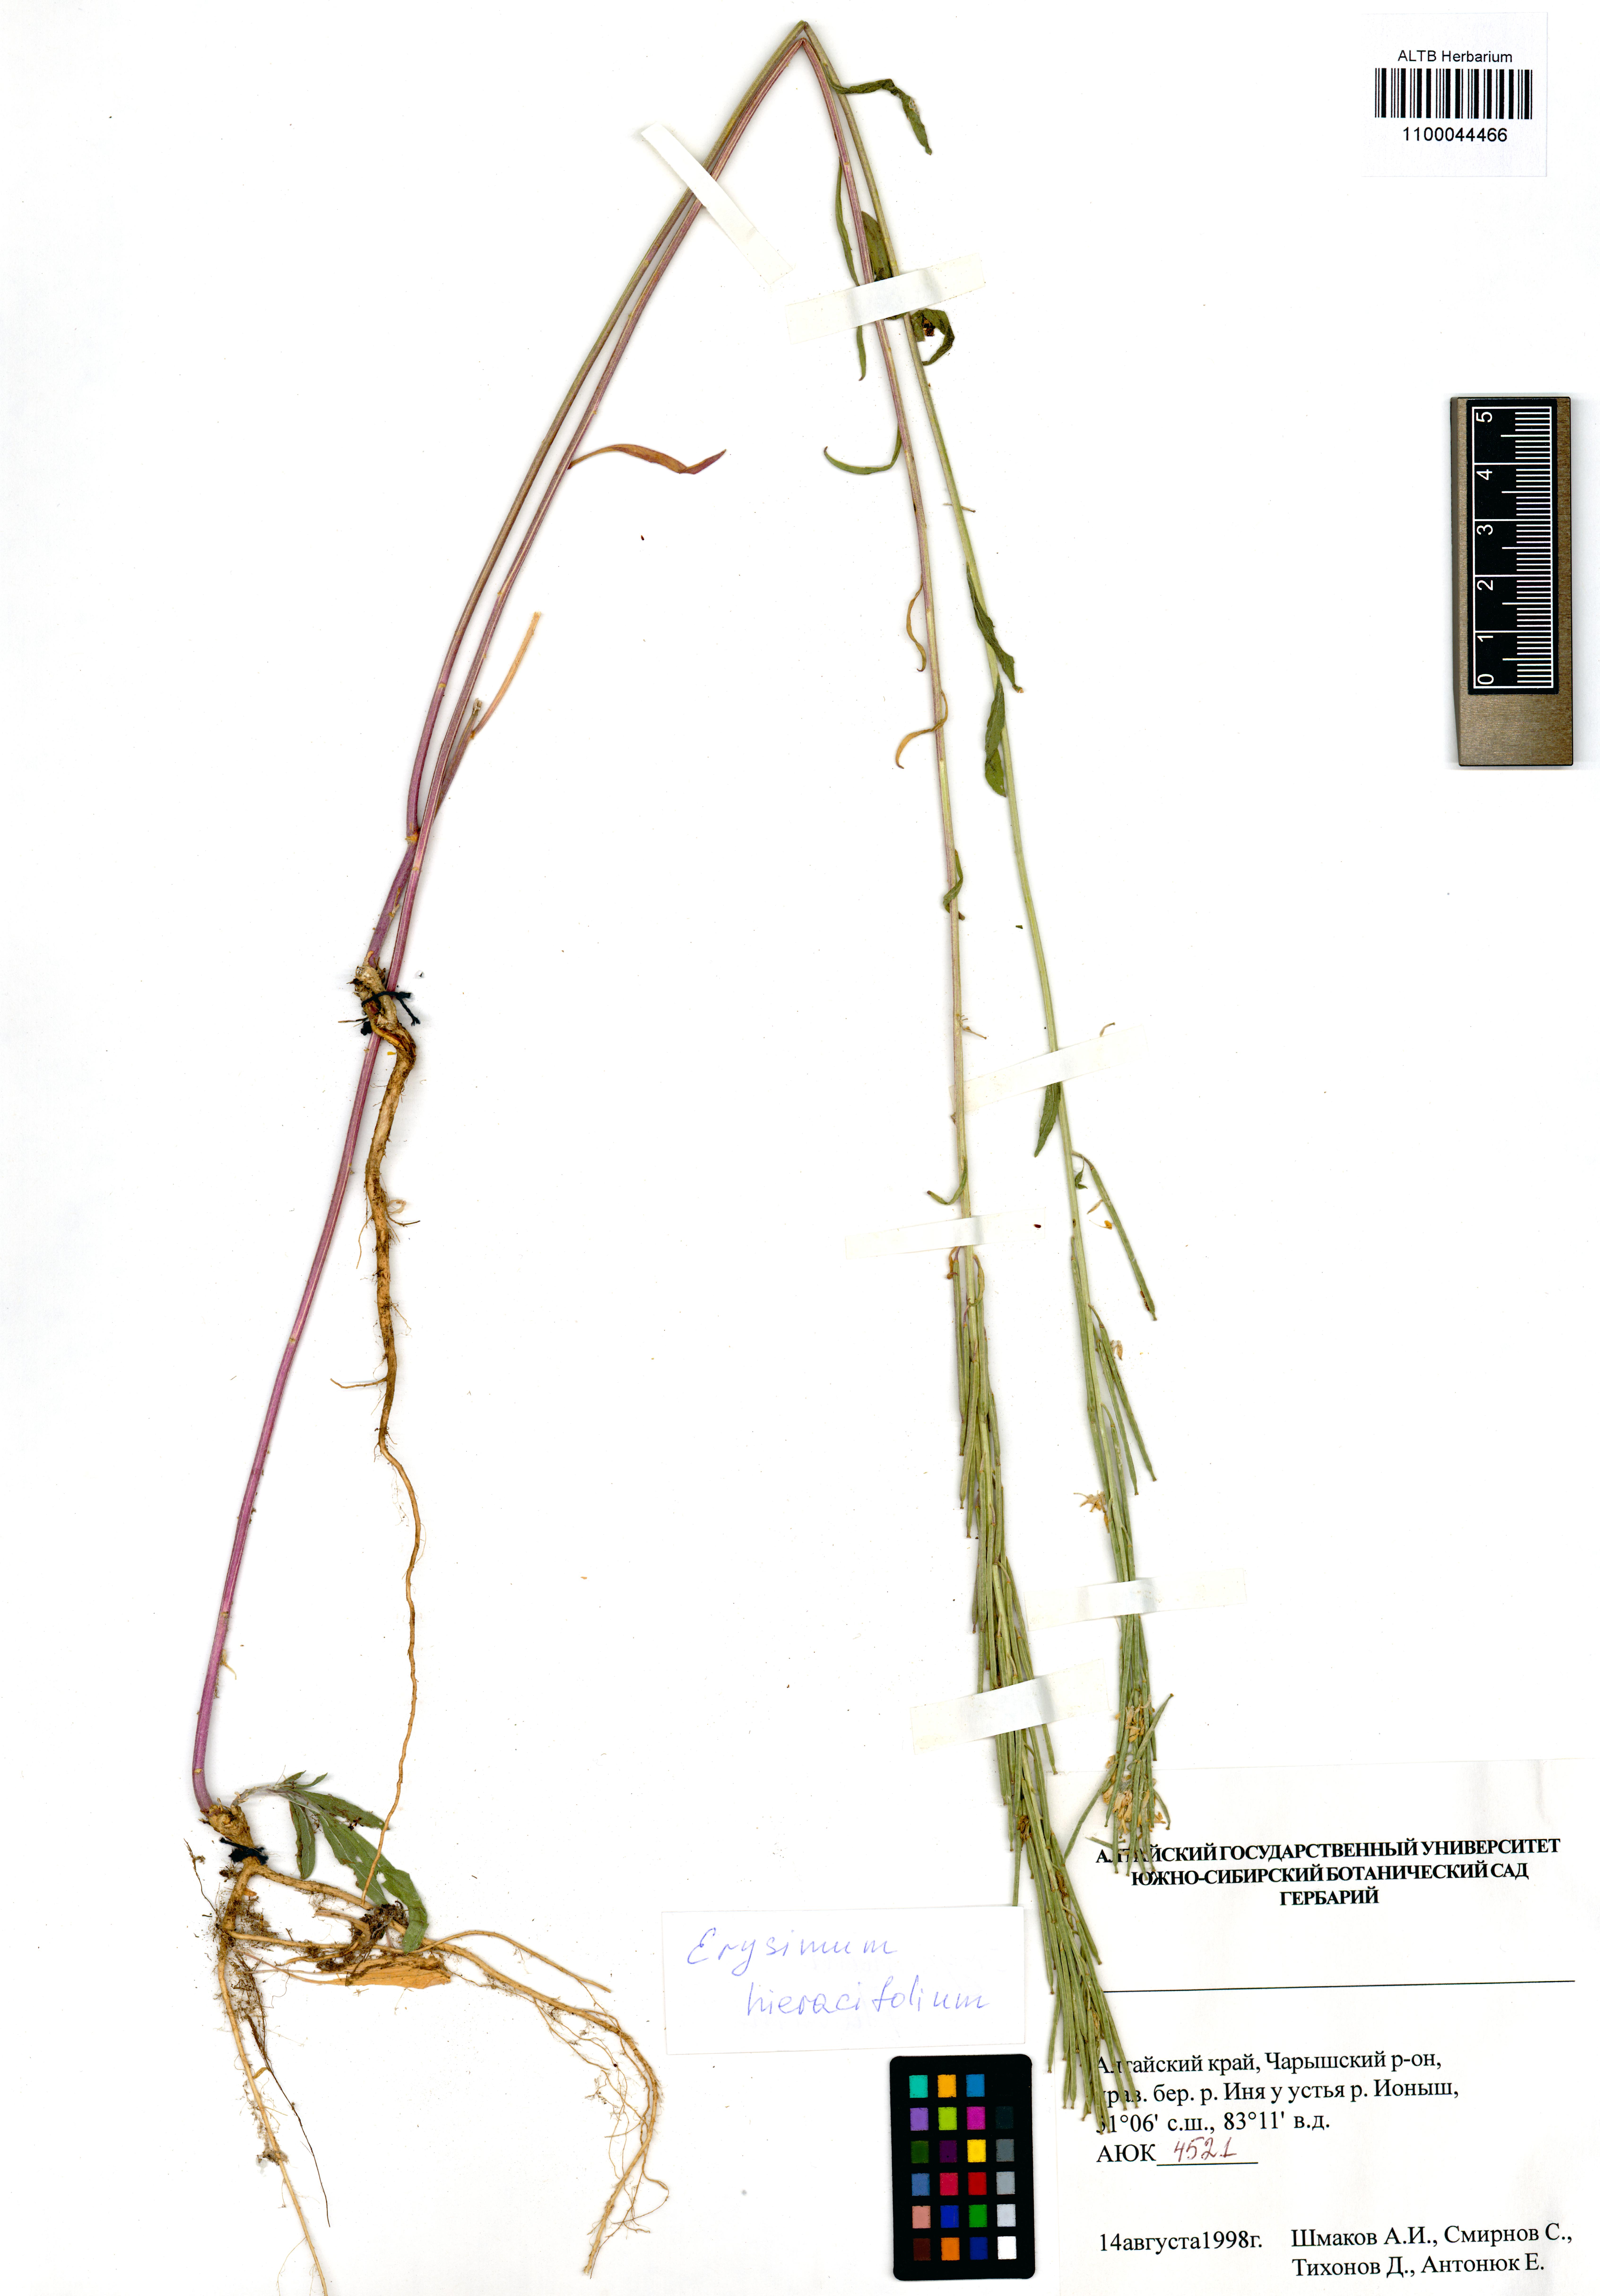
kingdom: Plantae
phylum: Tracheophyta
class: Magnoliopsida
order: Brassicales
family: Brassicaceae
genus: Erysimum
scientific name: Erysimum hieraciifolium
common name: European wallflower
